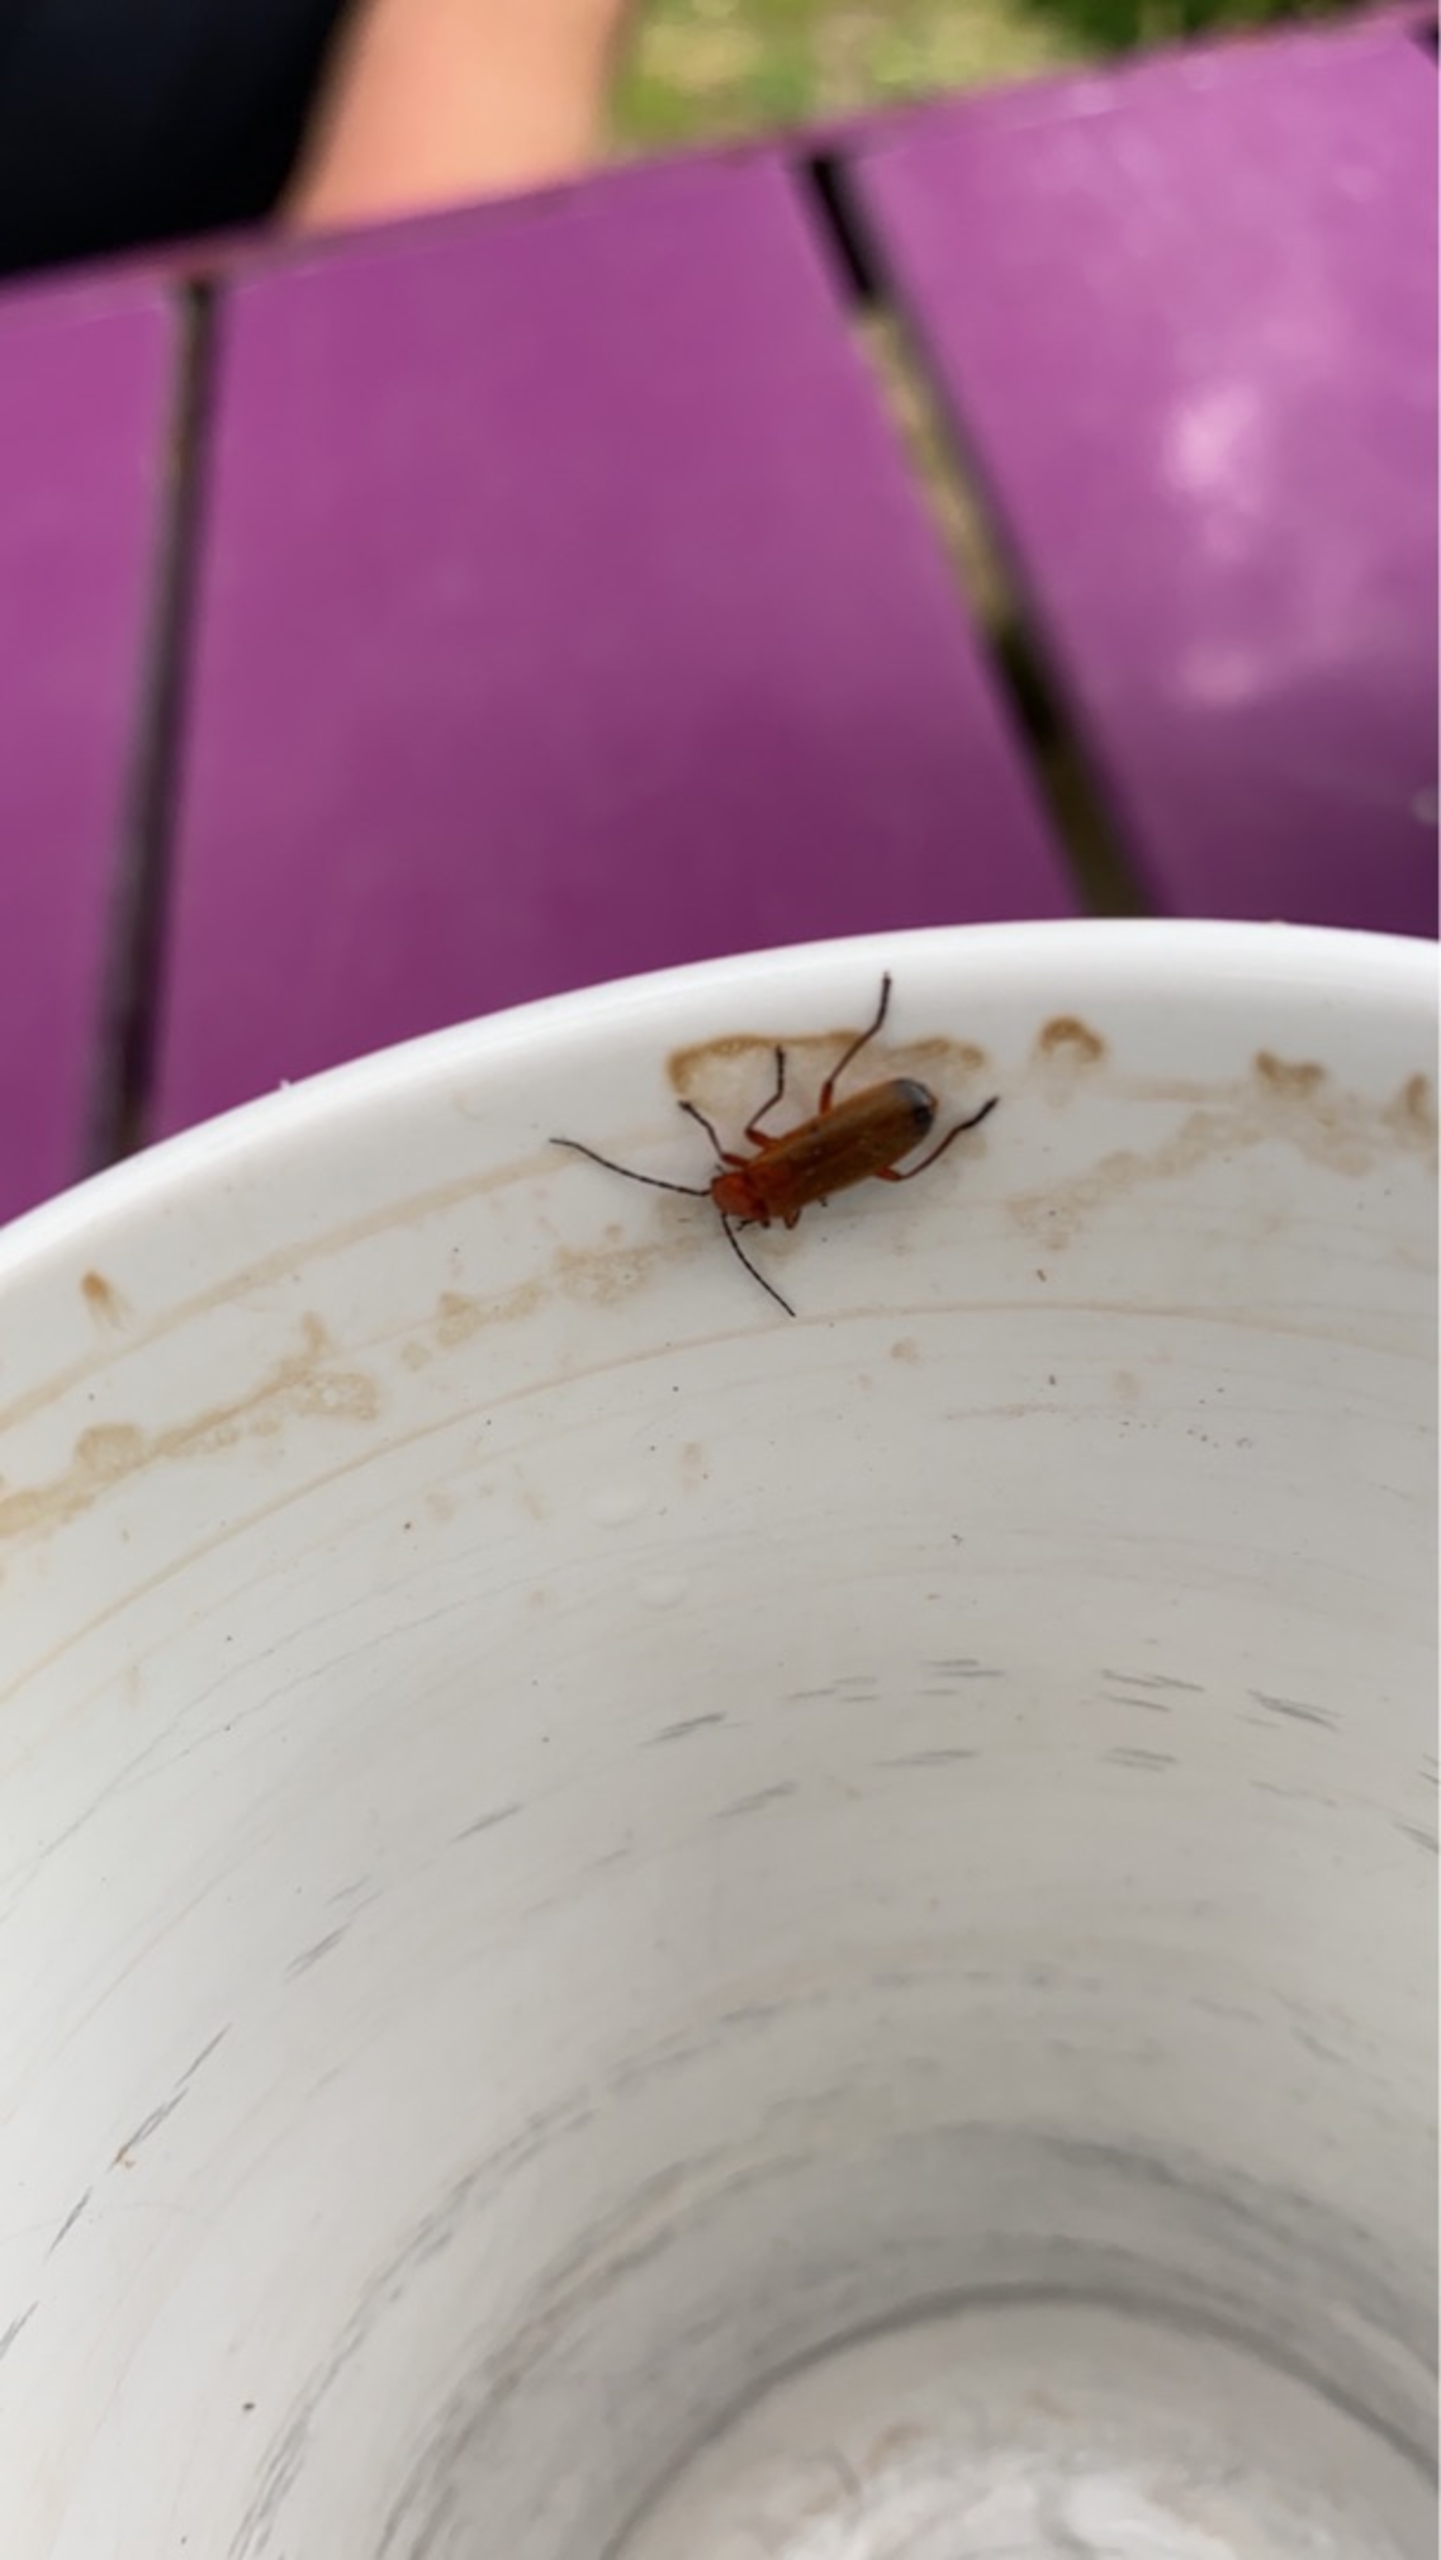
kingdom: Animalia
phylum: Arthropoda
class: Arachnida
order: Araneae
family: Araneidae
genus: Nuctenea
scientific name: Nuctenea umbratica
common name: Flad hjulspinder
